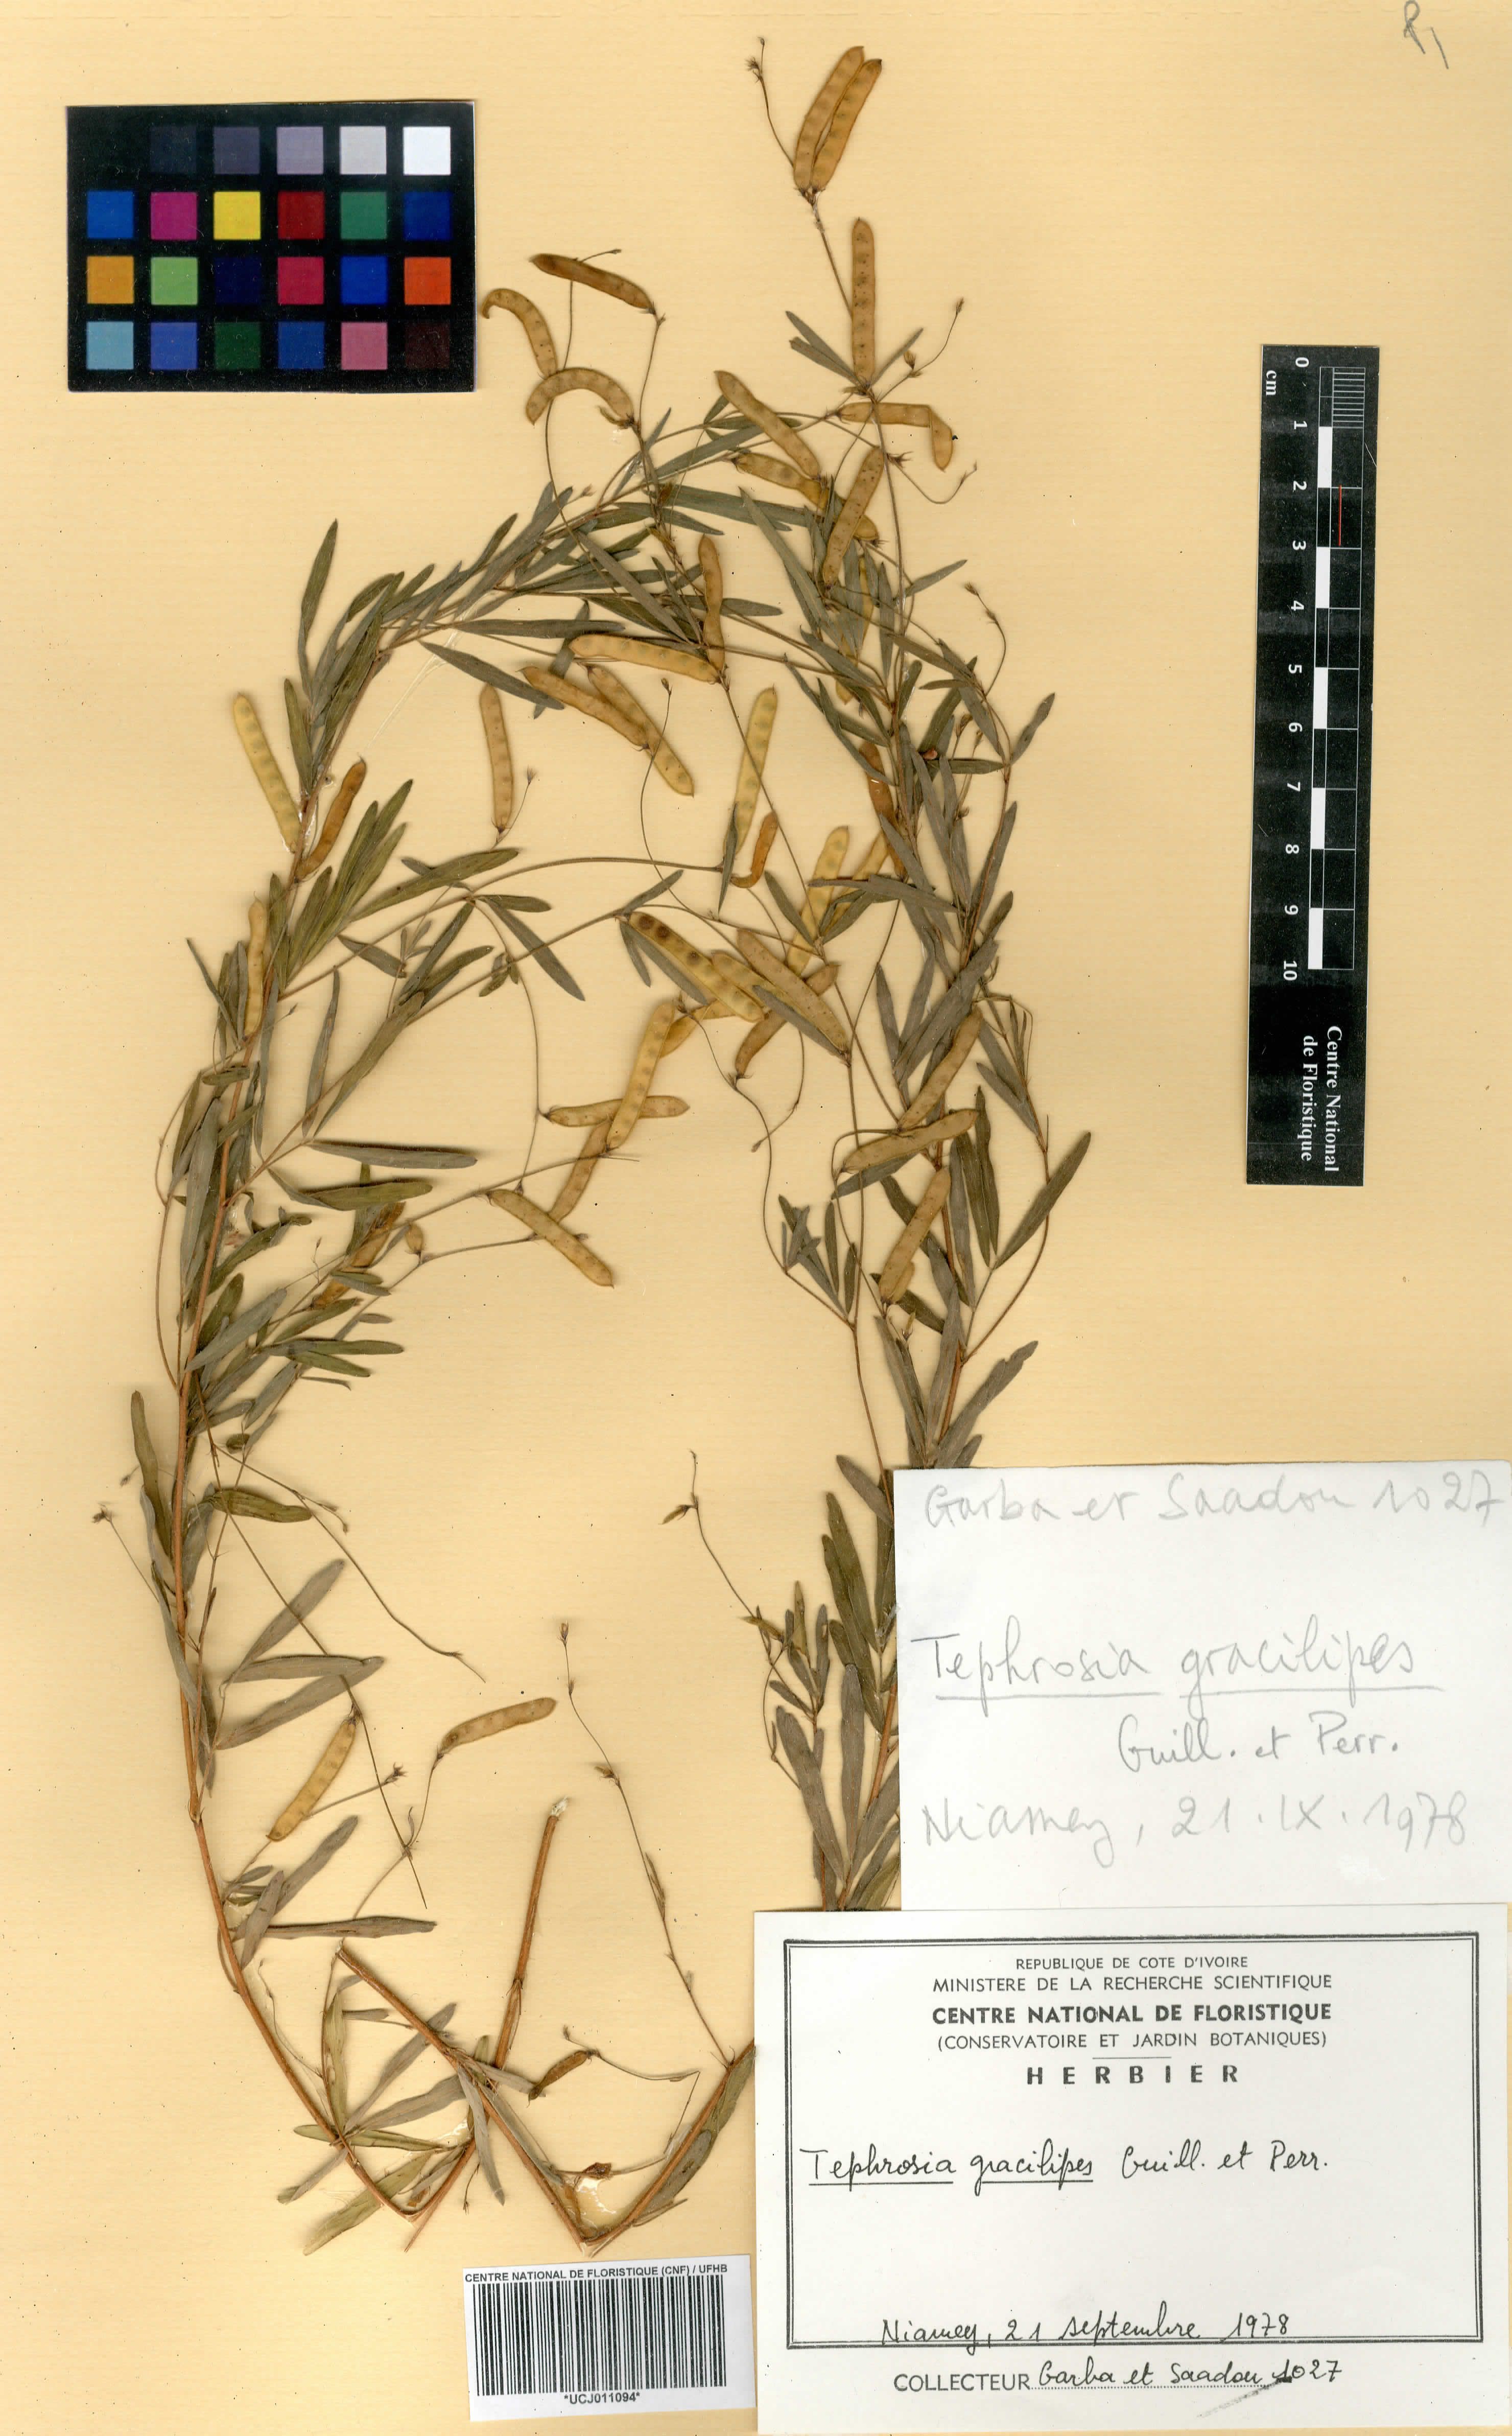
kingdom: Plantae
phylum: Tracheophyta
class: Magnoliopsida
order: Fabales
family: Fabaceae
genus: Tephrosia
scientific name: Tephrosia gracilipes
